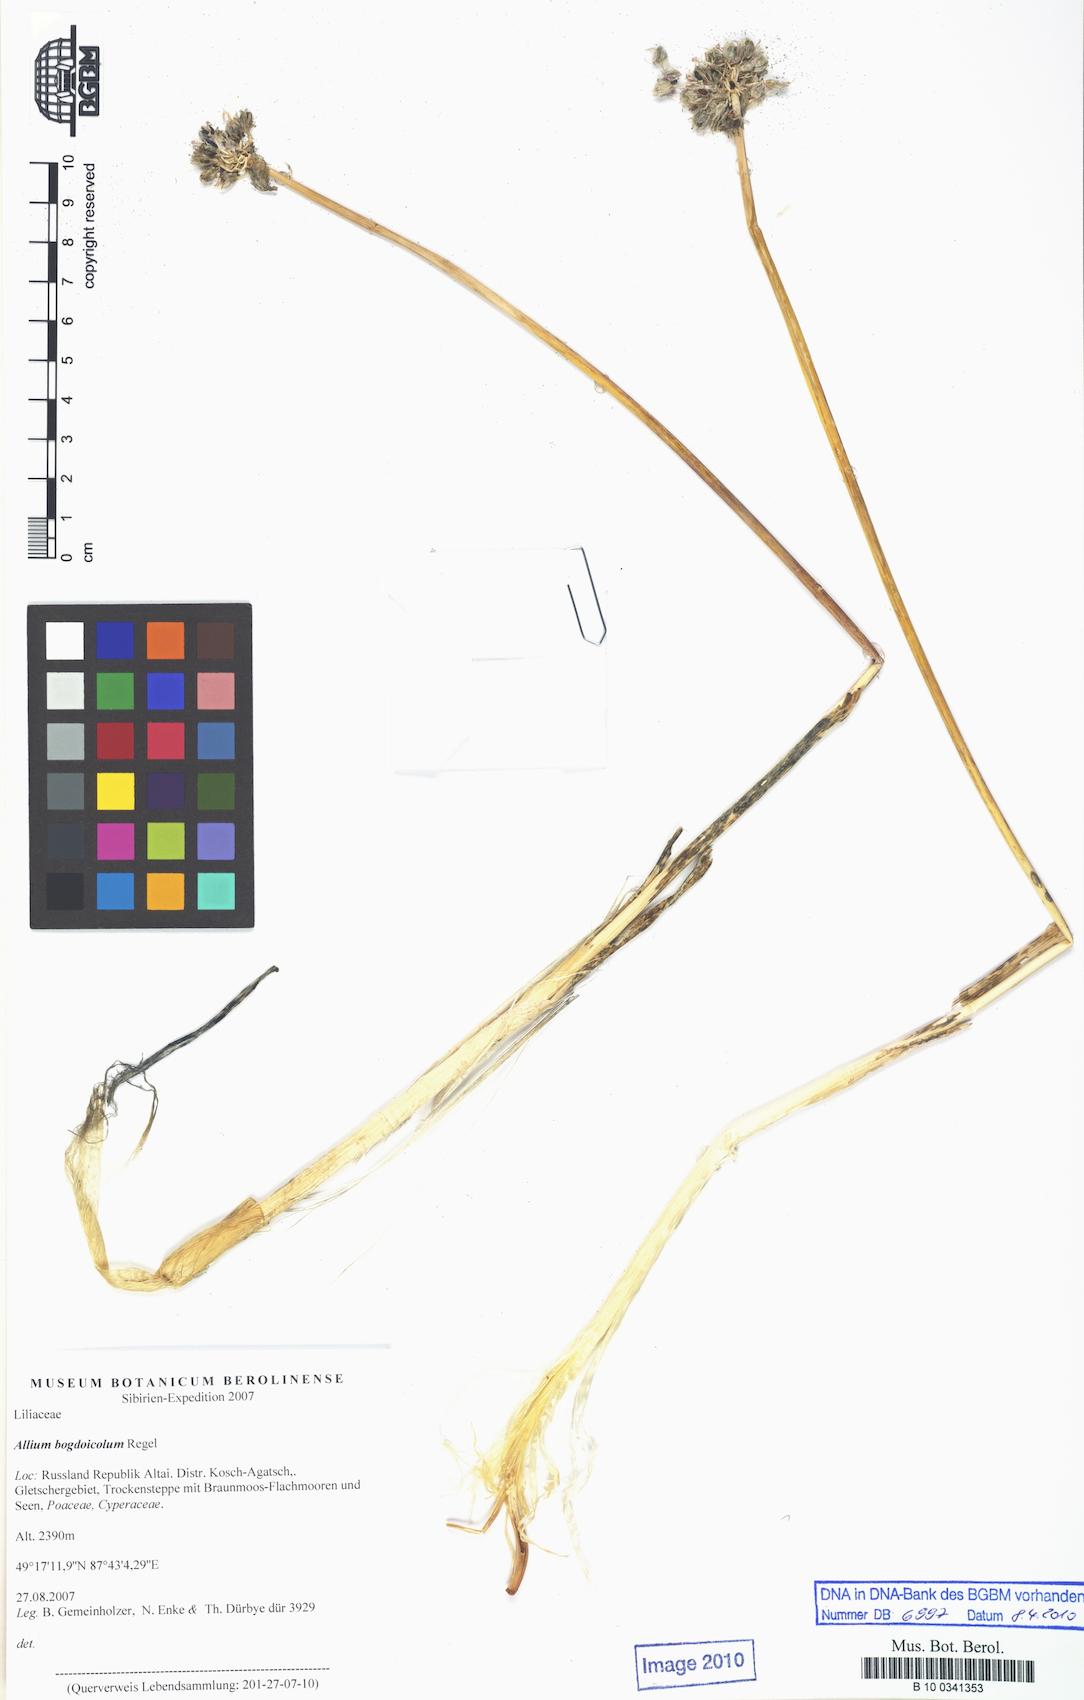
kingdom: Plantae
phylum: Tracheophyta
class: Liliopsida
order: Asparagales
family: Amaryllidaceae
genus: Allium
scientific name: Allium schrenkii
